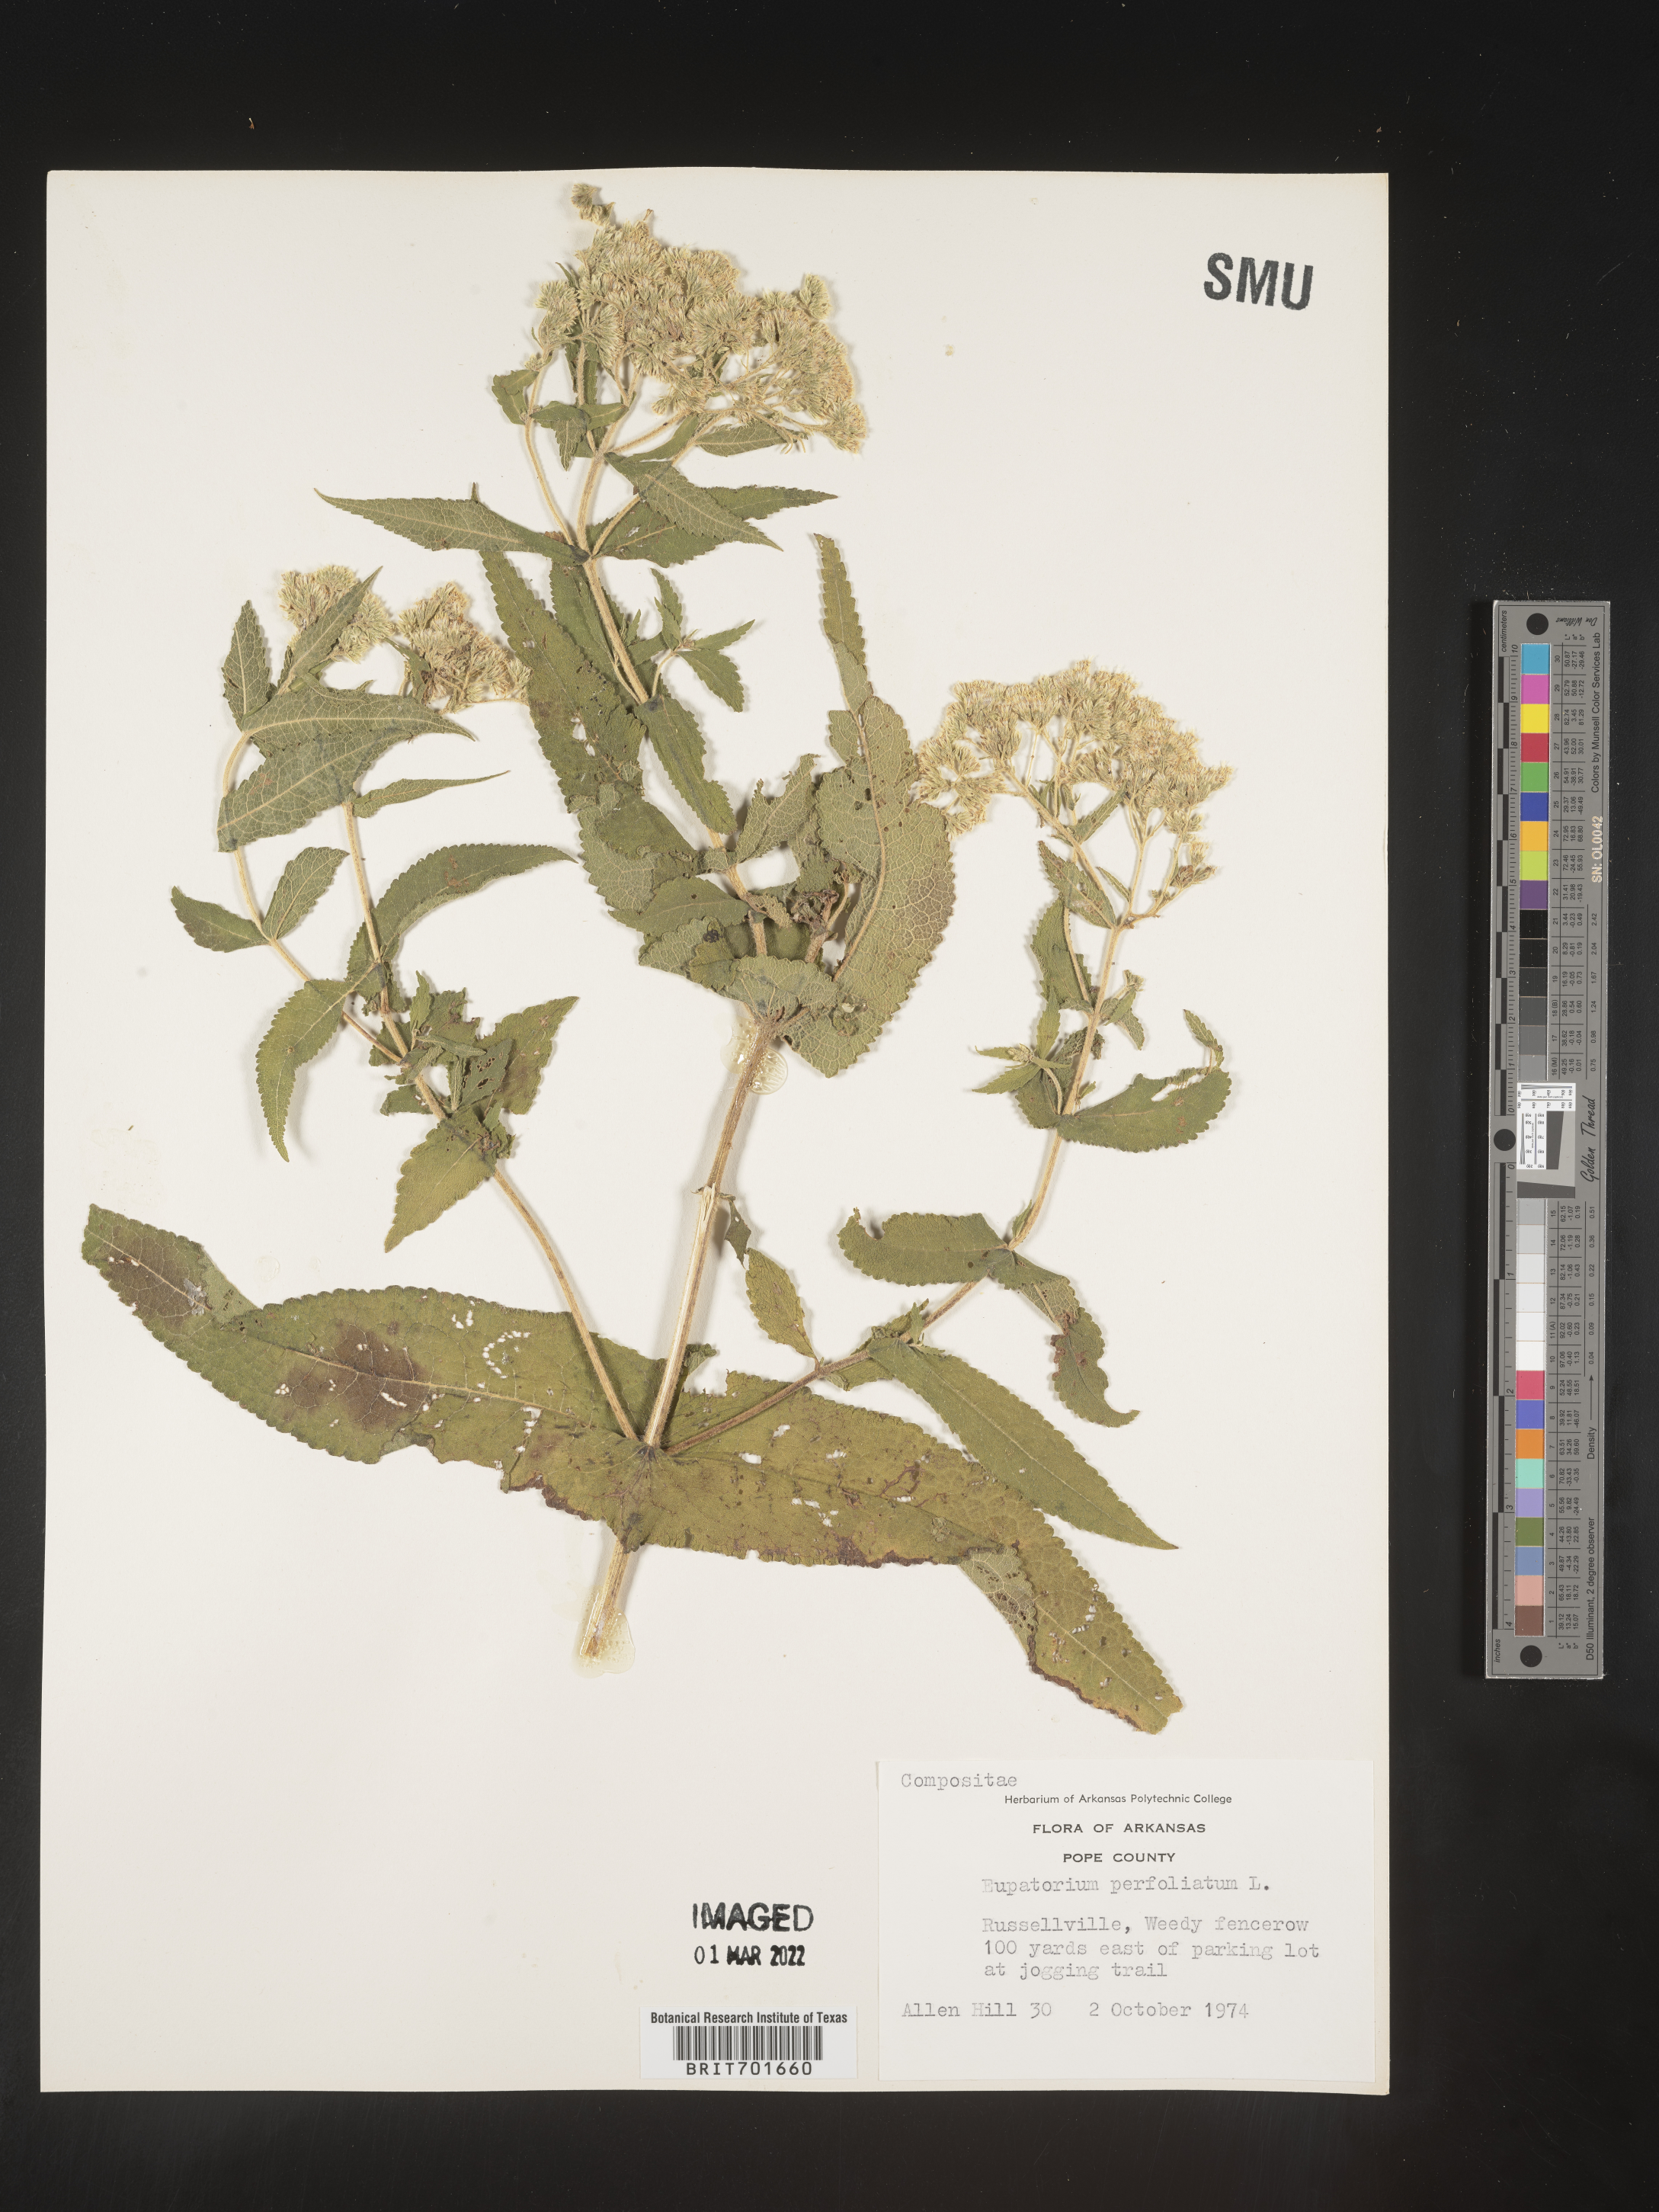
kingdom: Plantae
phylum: Tracheophyta
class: Magnoliopsida
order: Asterales
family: Asteraceae
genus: Eupatorium
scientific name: Eupatorium perfoliatum
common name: Boneset
